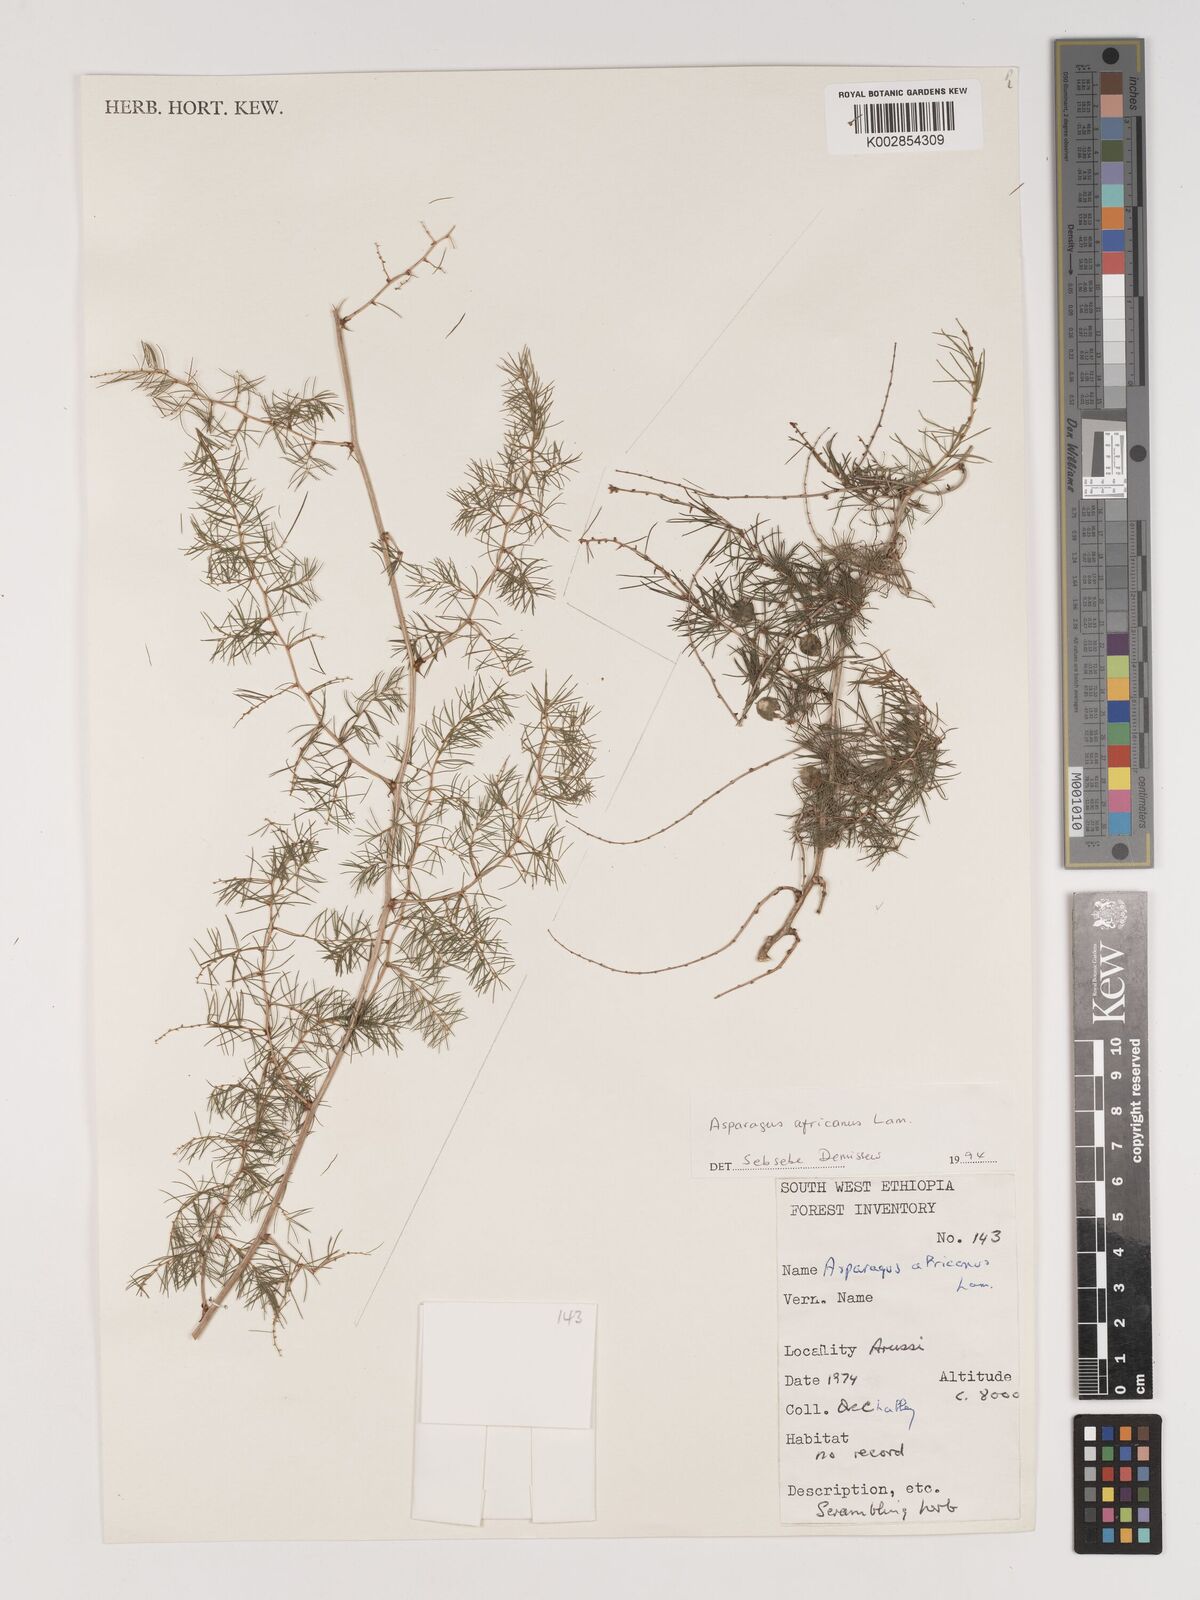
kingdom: Plantae
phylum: Tracheophyta
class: Liliopsida
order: Asparagales
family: Asparagaceae
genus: Asparagus
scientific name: Asparagus africanus
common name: Asparagus-fern
